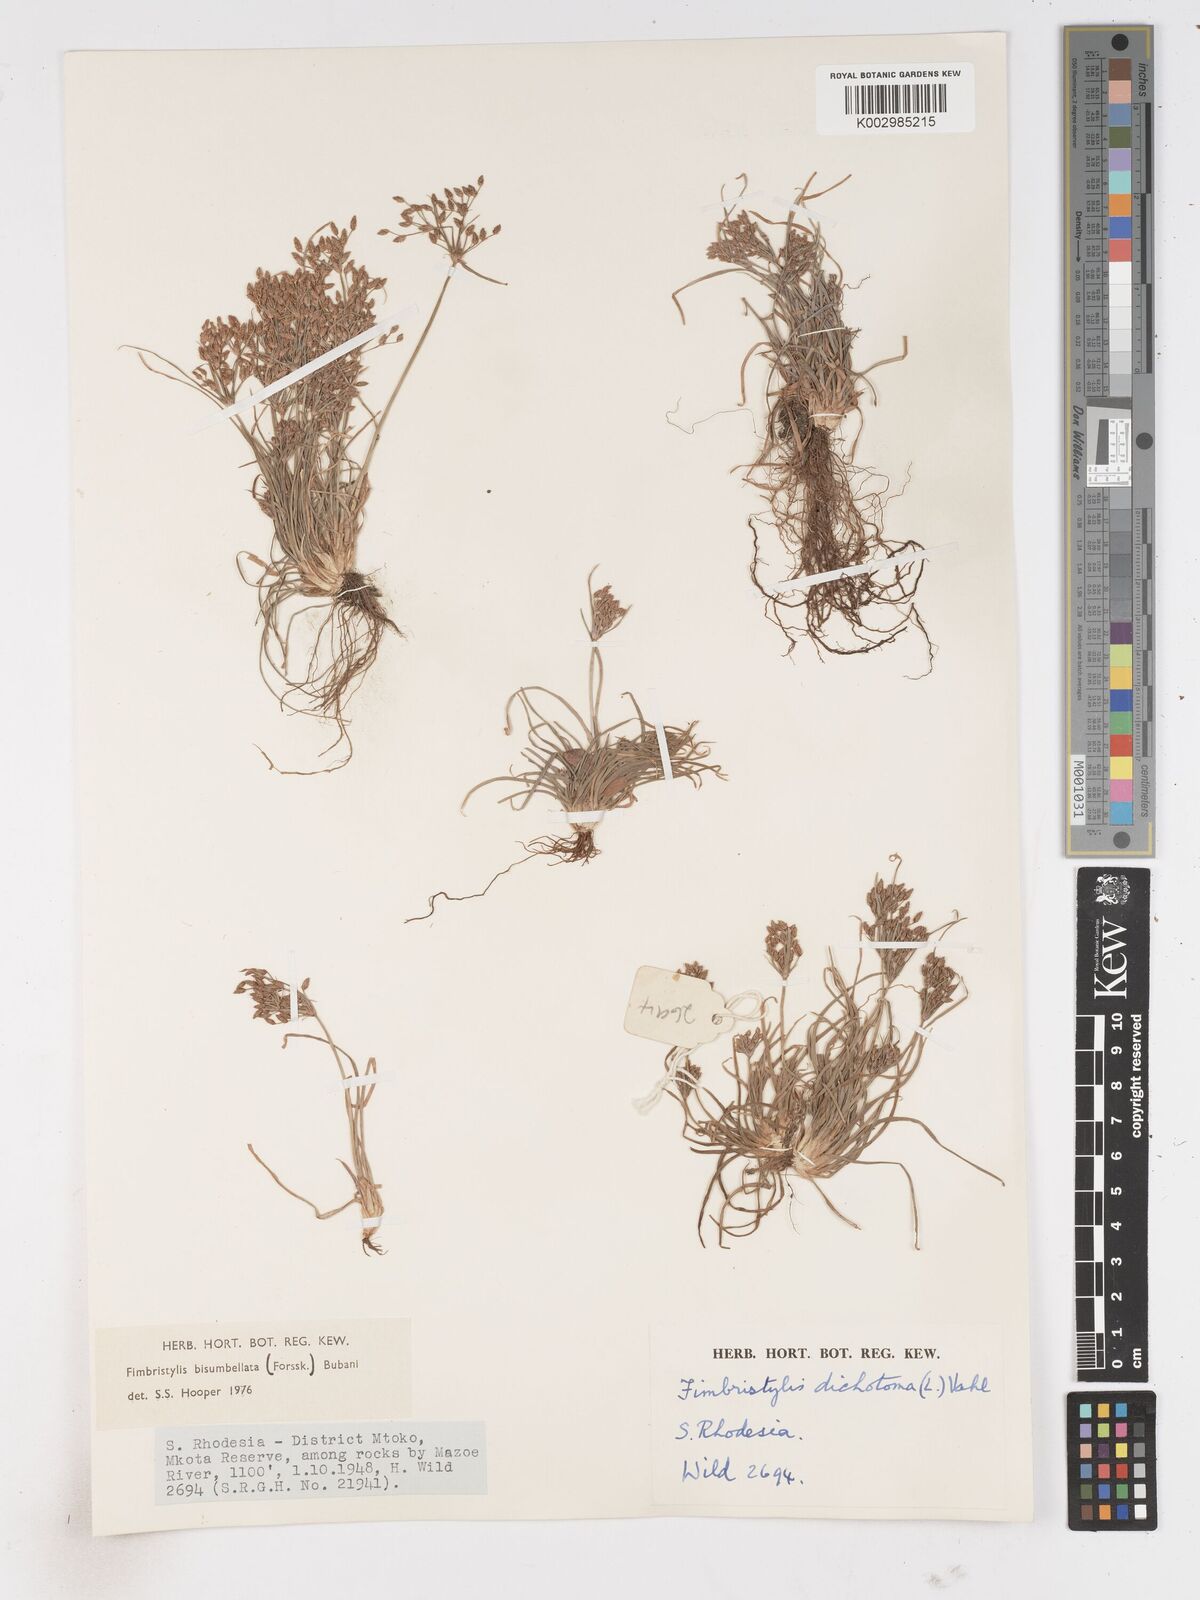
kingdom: Plantae
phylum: Tracheophyta
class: Liliopsida
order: Poales
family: Cyperaceae
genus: Fimbristylis
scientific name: Fimbristylis bisumbellata
